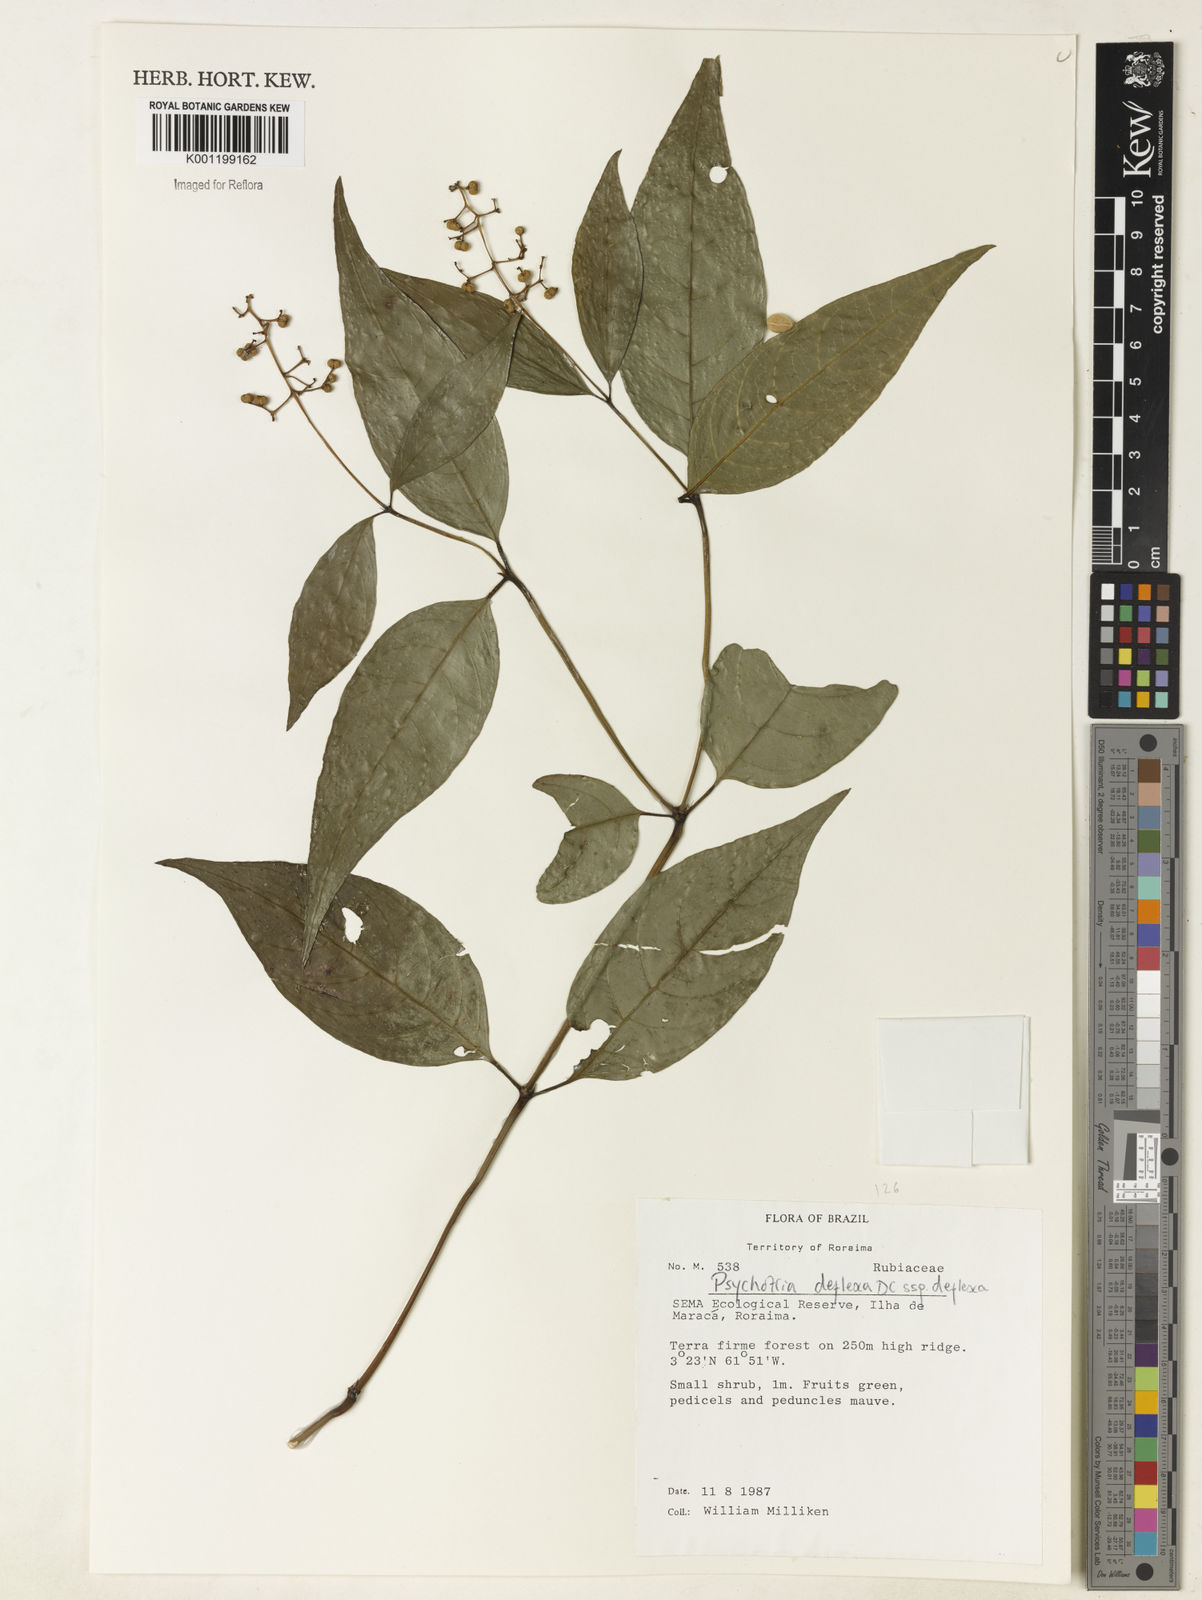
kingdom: Plantae
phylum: Tracheophyta
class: Magnoliopsida
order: Gentianales
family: Rubiaceae
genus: Palicourea
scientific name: Palicourea deflexa
